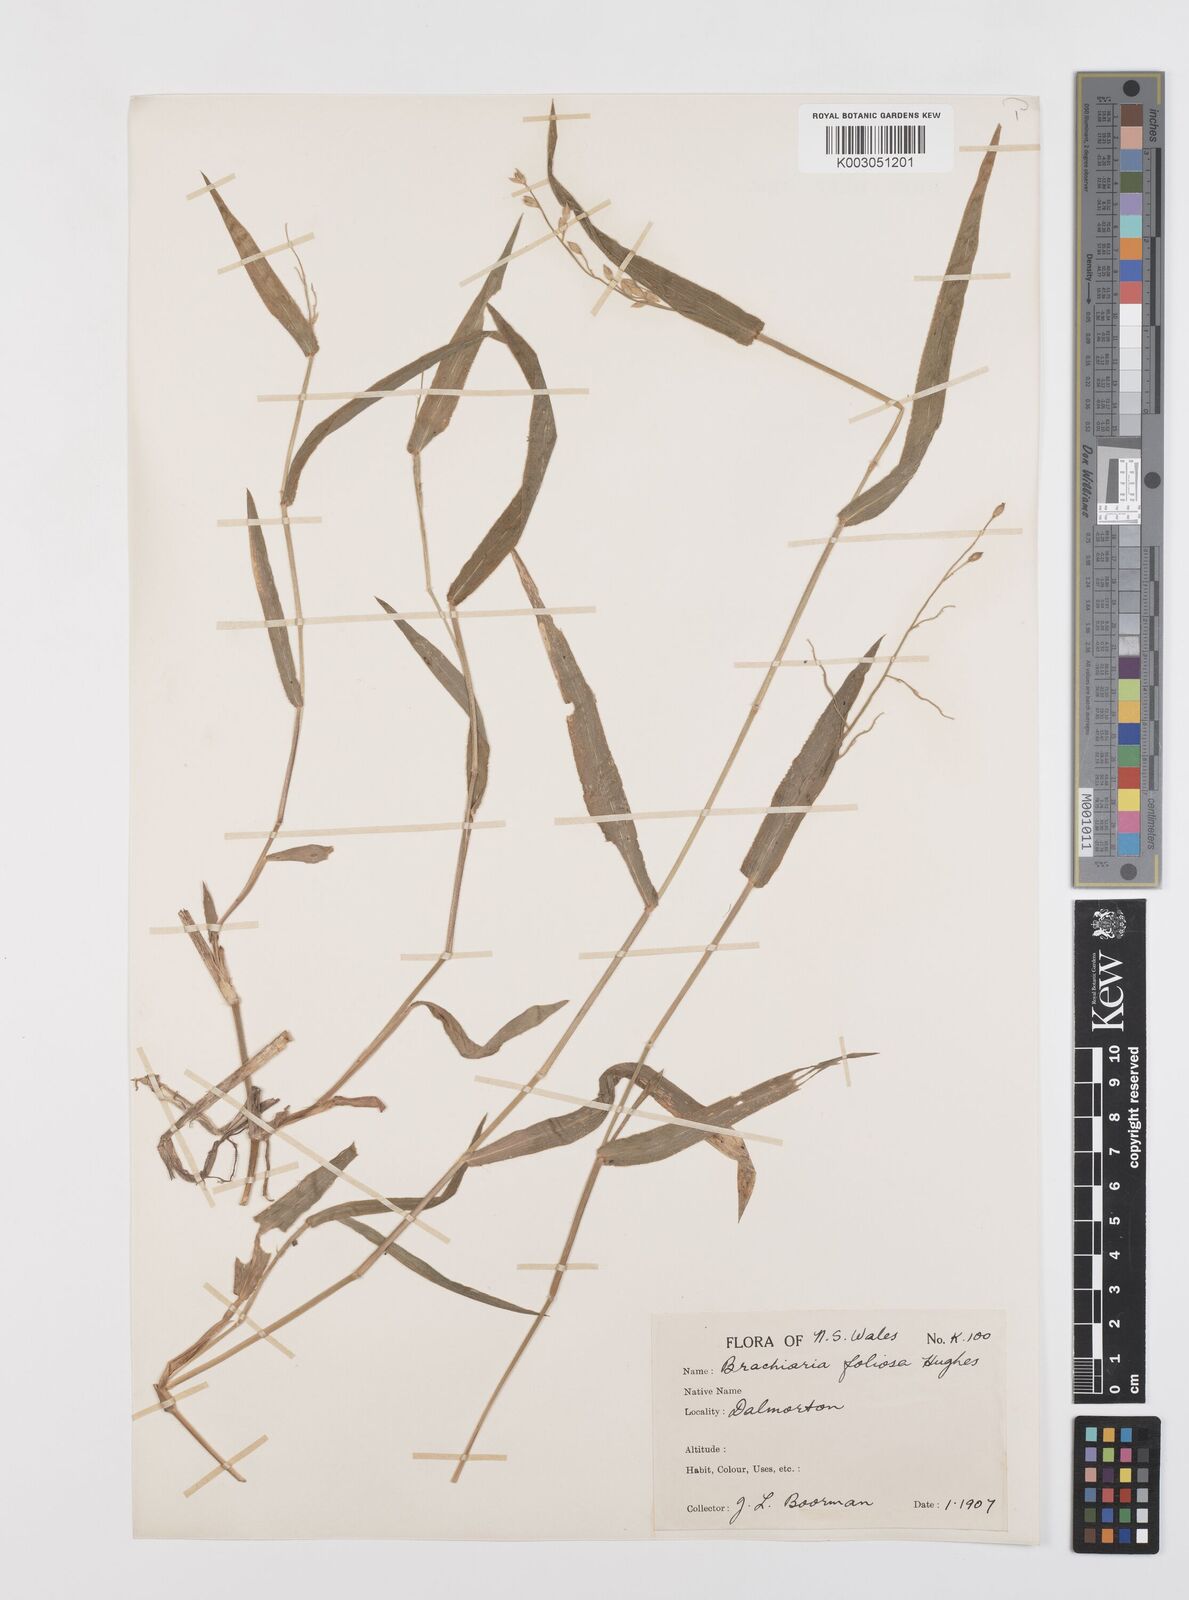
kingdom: Plantae
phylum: Tracheophyta
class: Liliopsida
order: Poales
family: Poaceae
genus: Urochloa
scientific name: Urochloa foliosa
